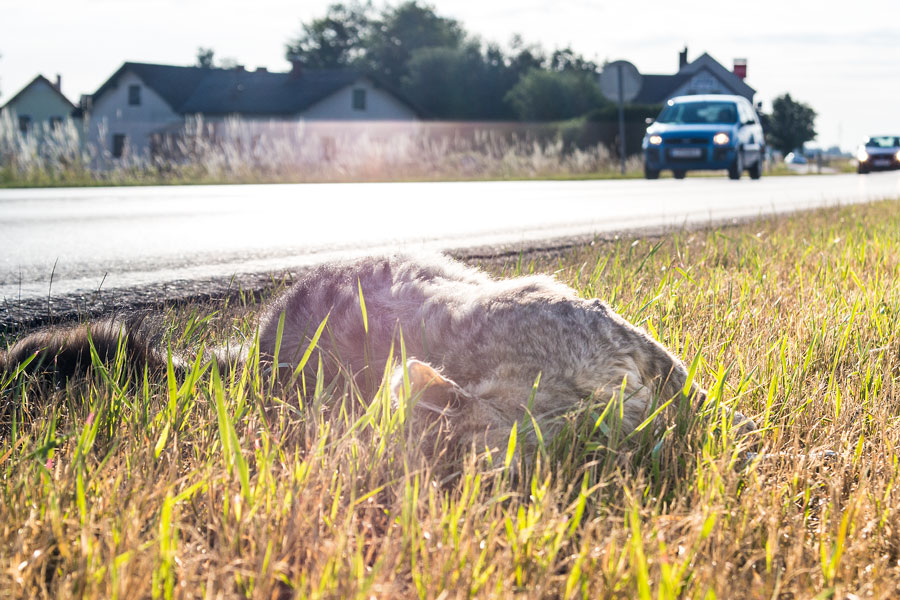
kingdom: Animalia
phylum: Chordata
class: Mammalia
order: Carnivora
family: Felidae
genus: Felis
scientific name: Felis catus
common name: Domestic cat
